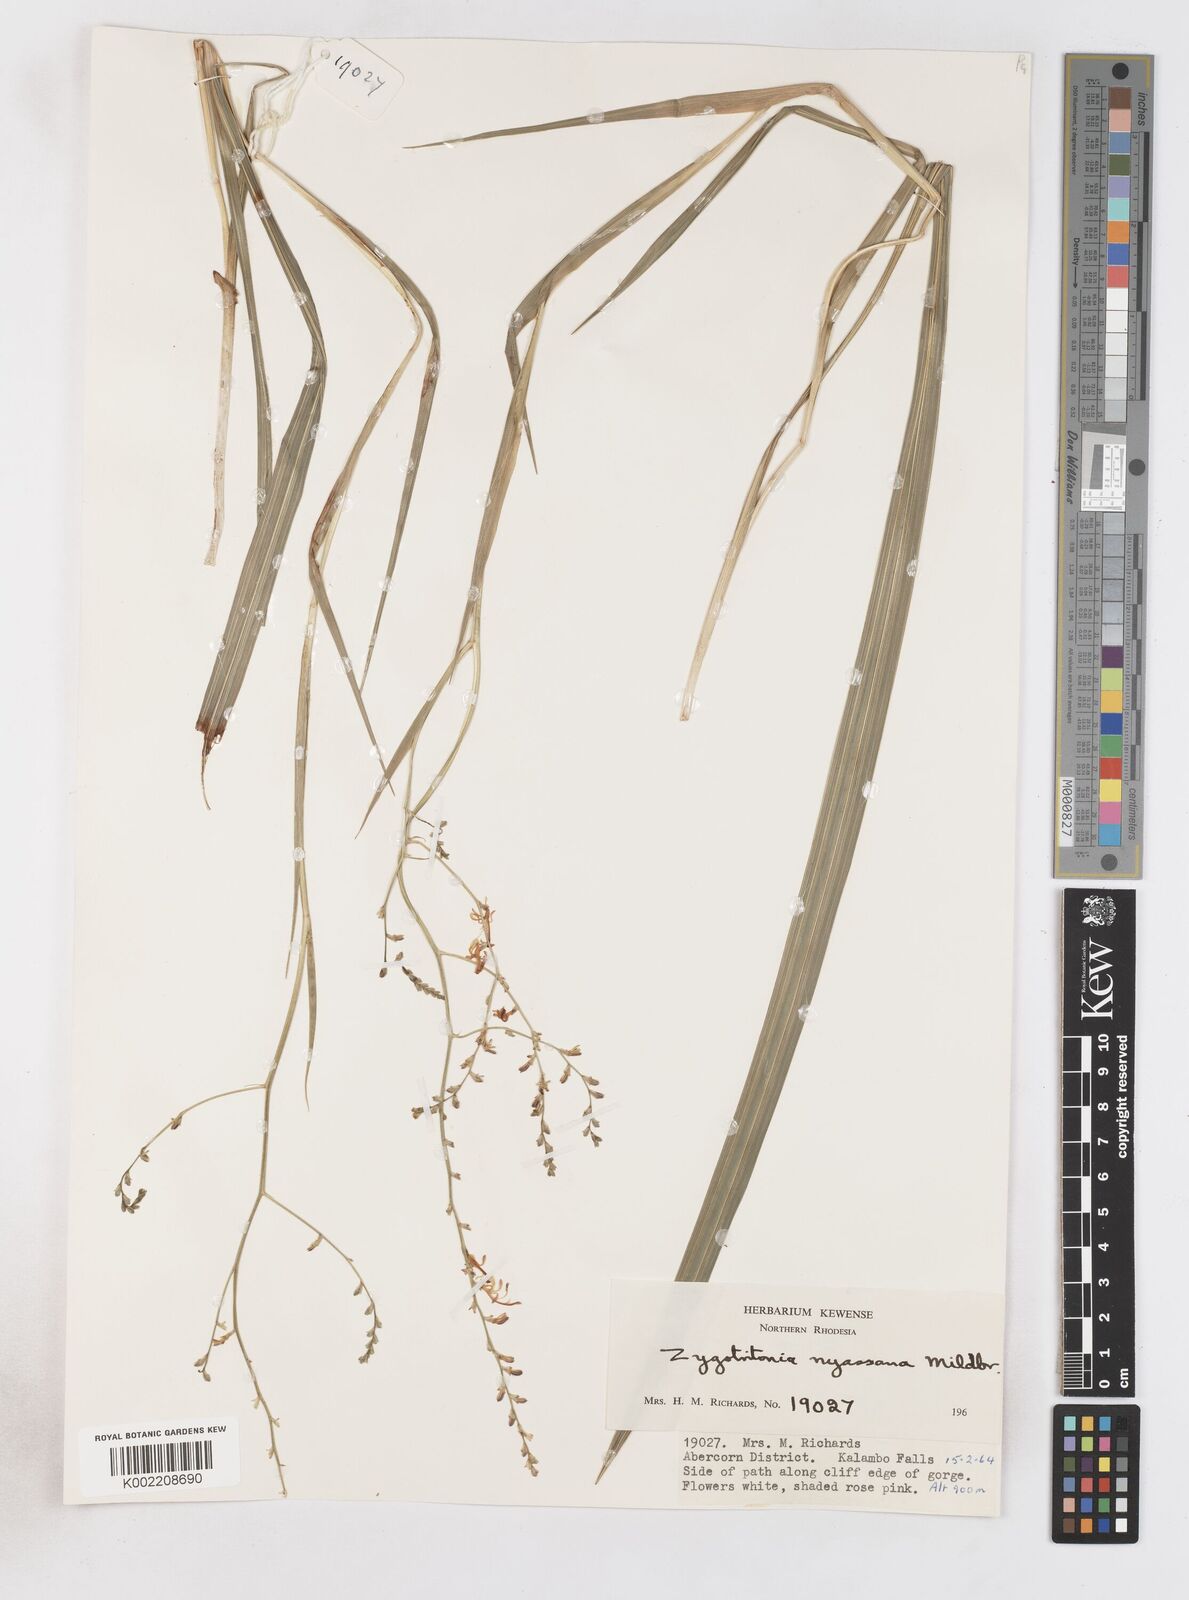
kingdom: Plantae
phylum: Tracheophyta
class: Liliopsida
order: Asparagales
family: Iridaceae
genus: Zygotritonia
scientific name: Zygotritonia nyassana
